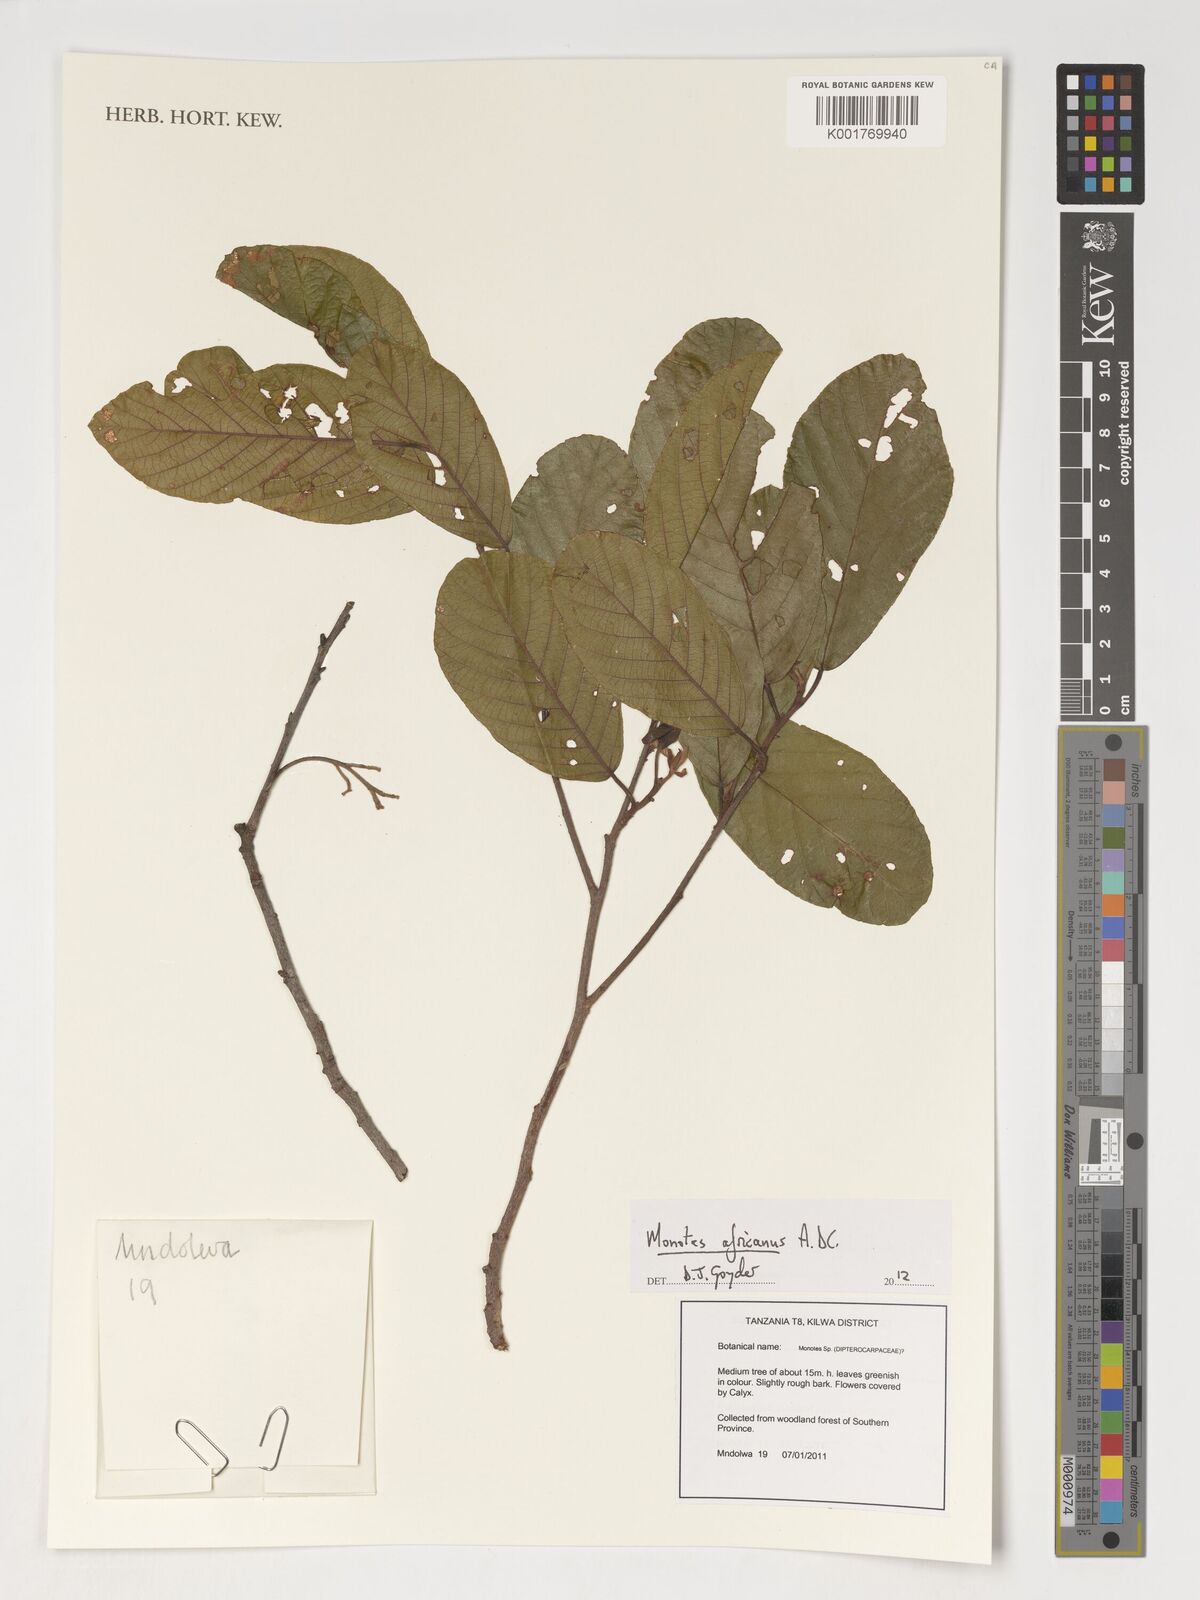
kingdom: Plantae
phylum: Tracheophyta
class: Magnoliopsida
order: Malvales
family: Dipterocarpaceae
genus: Monotes
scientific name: Monotes africanus
